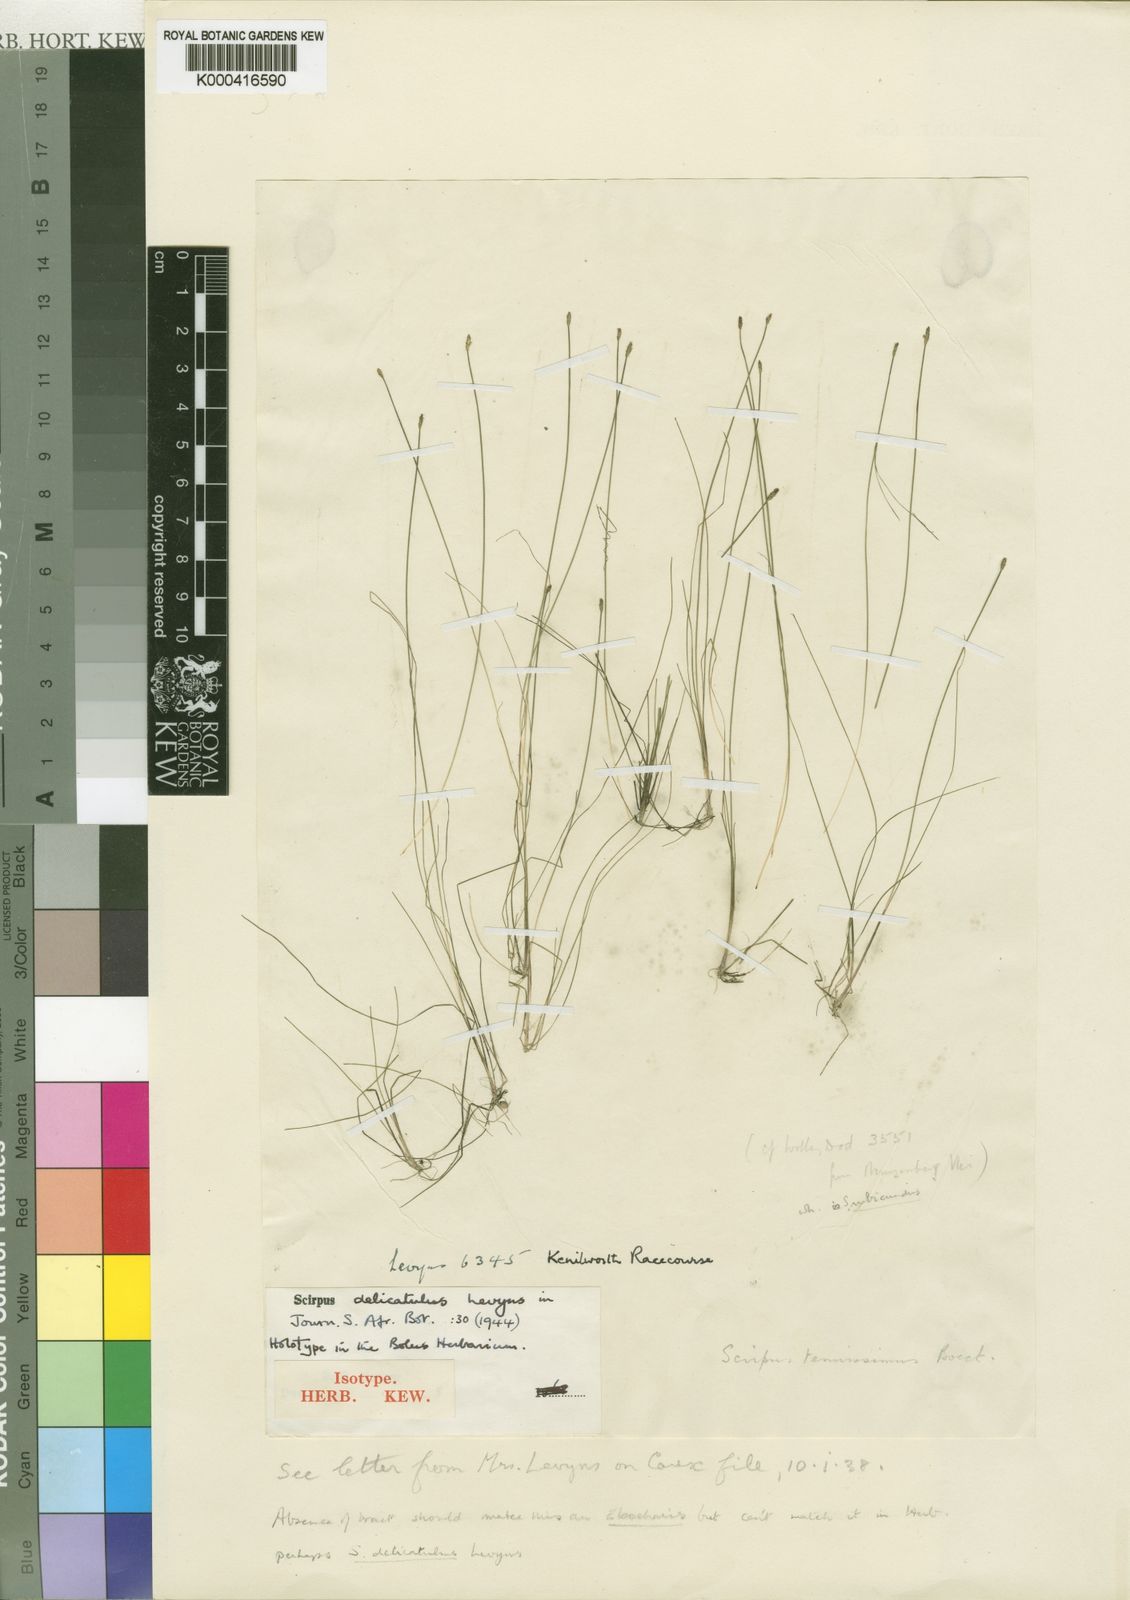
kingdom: Plantae
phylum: Tracheophyta
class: Liliopsida
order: Poales
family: Cyperaceae
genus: Isolepis
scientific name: Isolepis bulbifera
